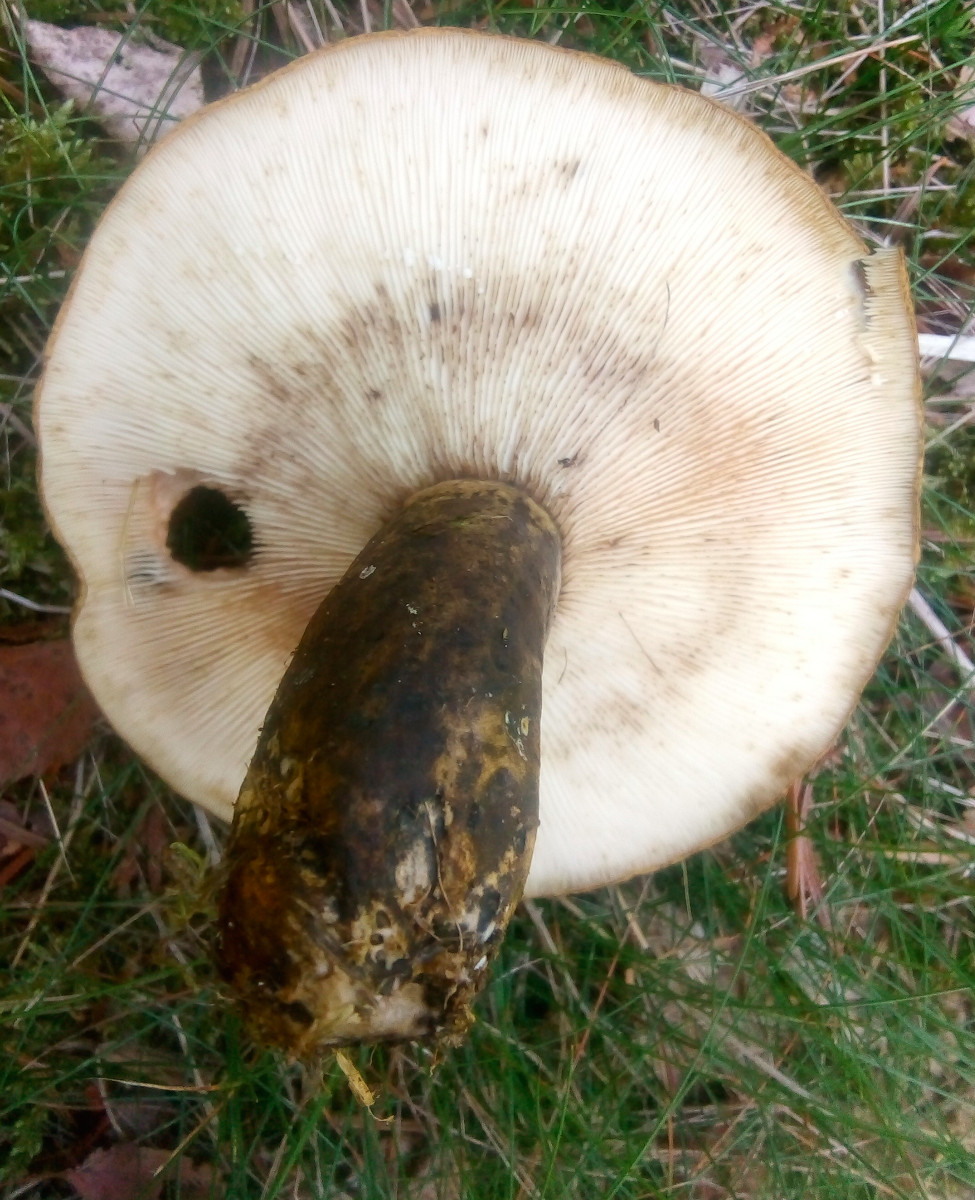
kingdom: Fungi
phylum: Basidiomycota
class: Agaricomycetes
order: Russulales
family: Russulaceae
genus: Lactarius
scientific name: Lactarius necator
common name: manddraber-mælkehat
